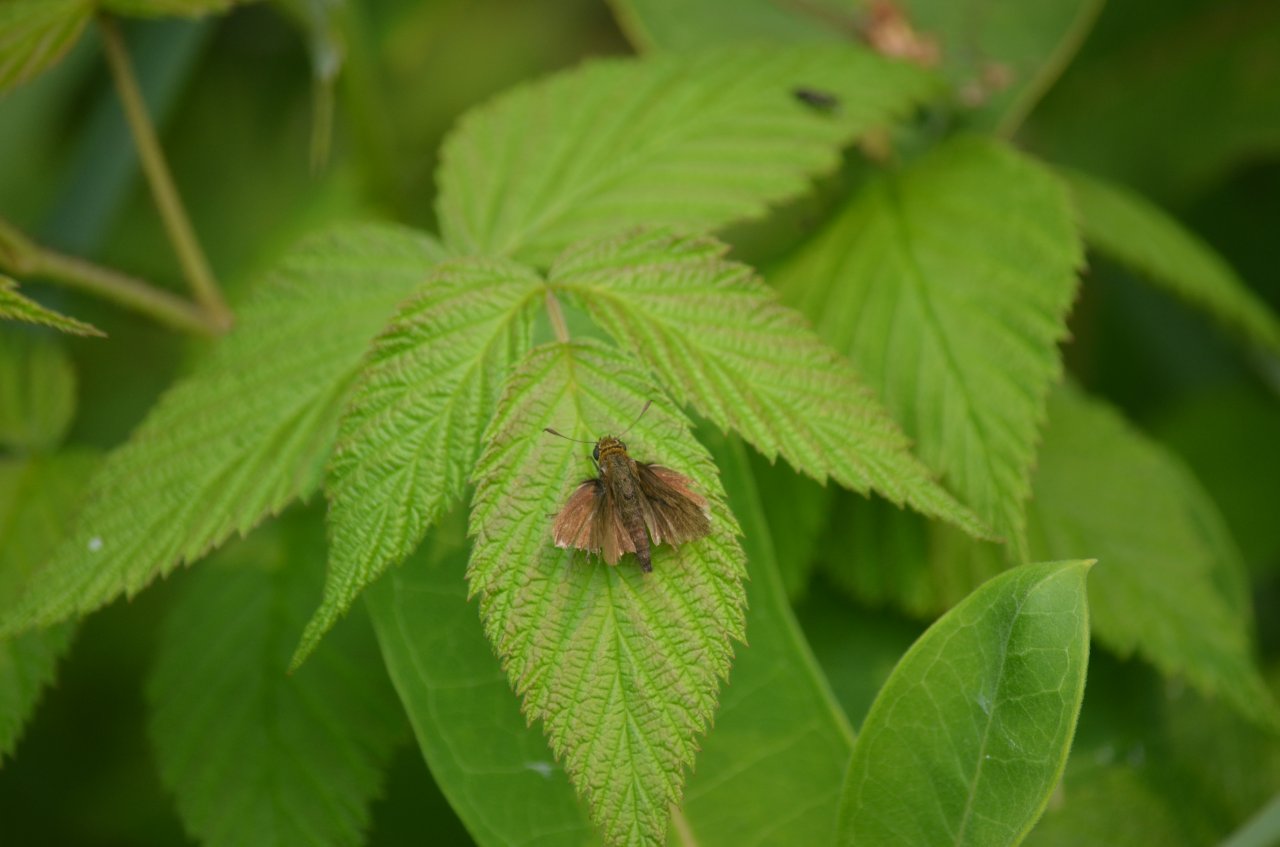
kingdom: Animalia
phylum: Arthropoda
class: Insecta
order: Lepidoptera
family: Hesperiidae
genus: Euphyes
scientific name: Euphyes vestris
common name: Dun Skipper
